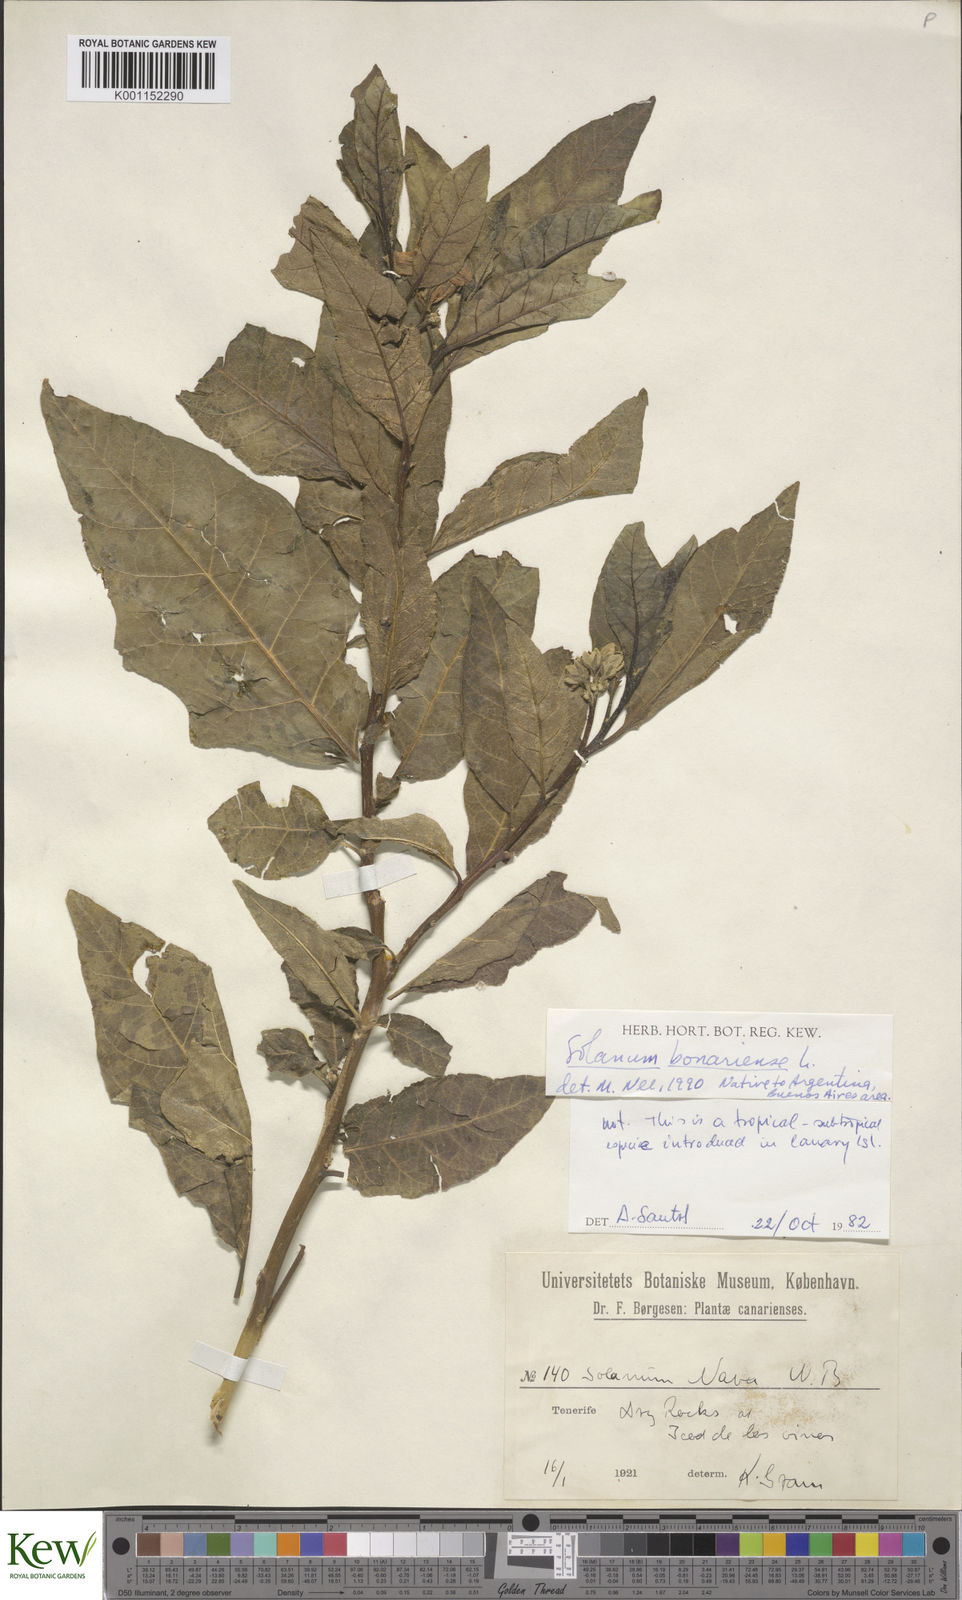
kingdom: Plantae
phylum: Tracheophyta
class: Magnoliopsida
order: Solanales
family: Solanaceae
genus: Solanum
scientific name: Solanum bonariense
